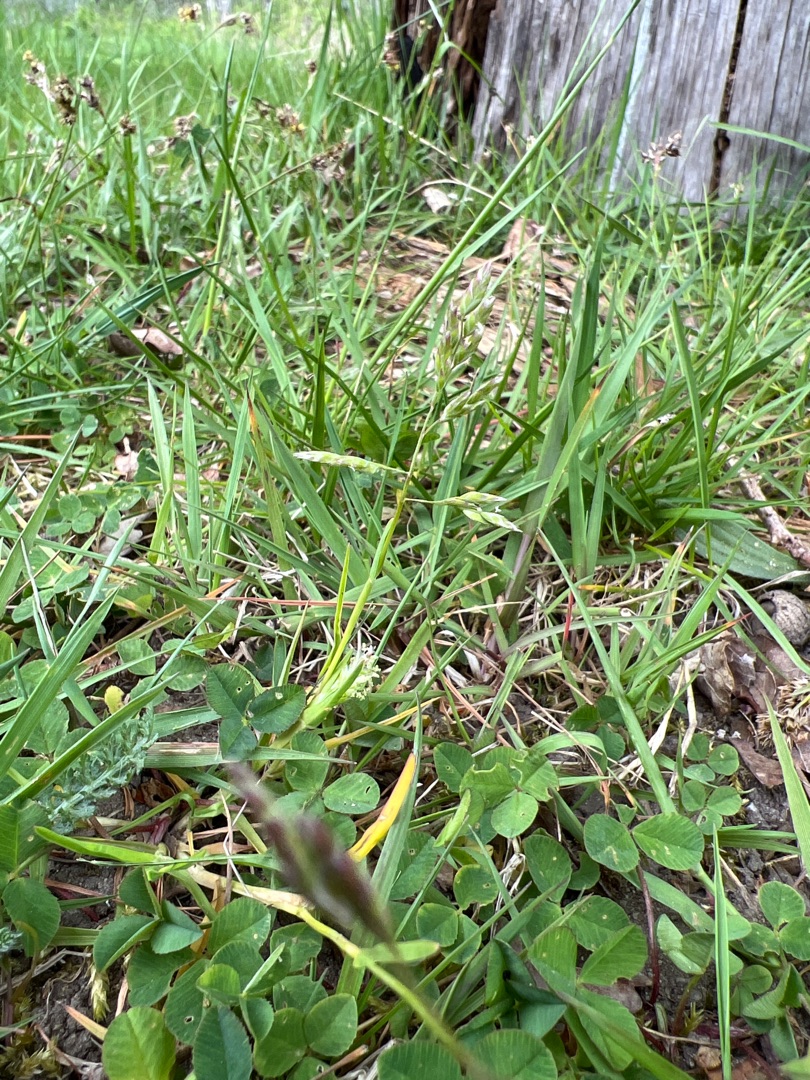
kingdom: Plantae
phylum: Tracheophyta
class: Liliopsida
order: Poales
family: Poaceae
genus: Poa
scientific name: Poa annua
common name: Enårig rapgræs
